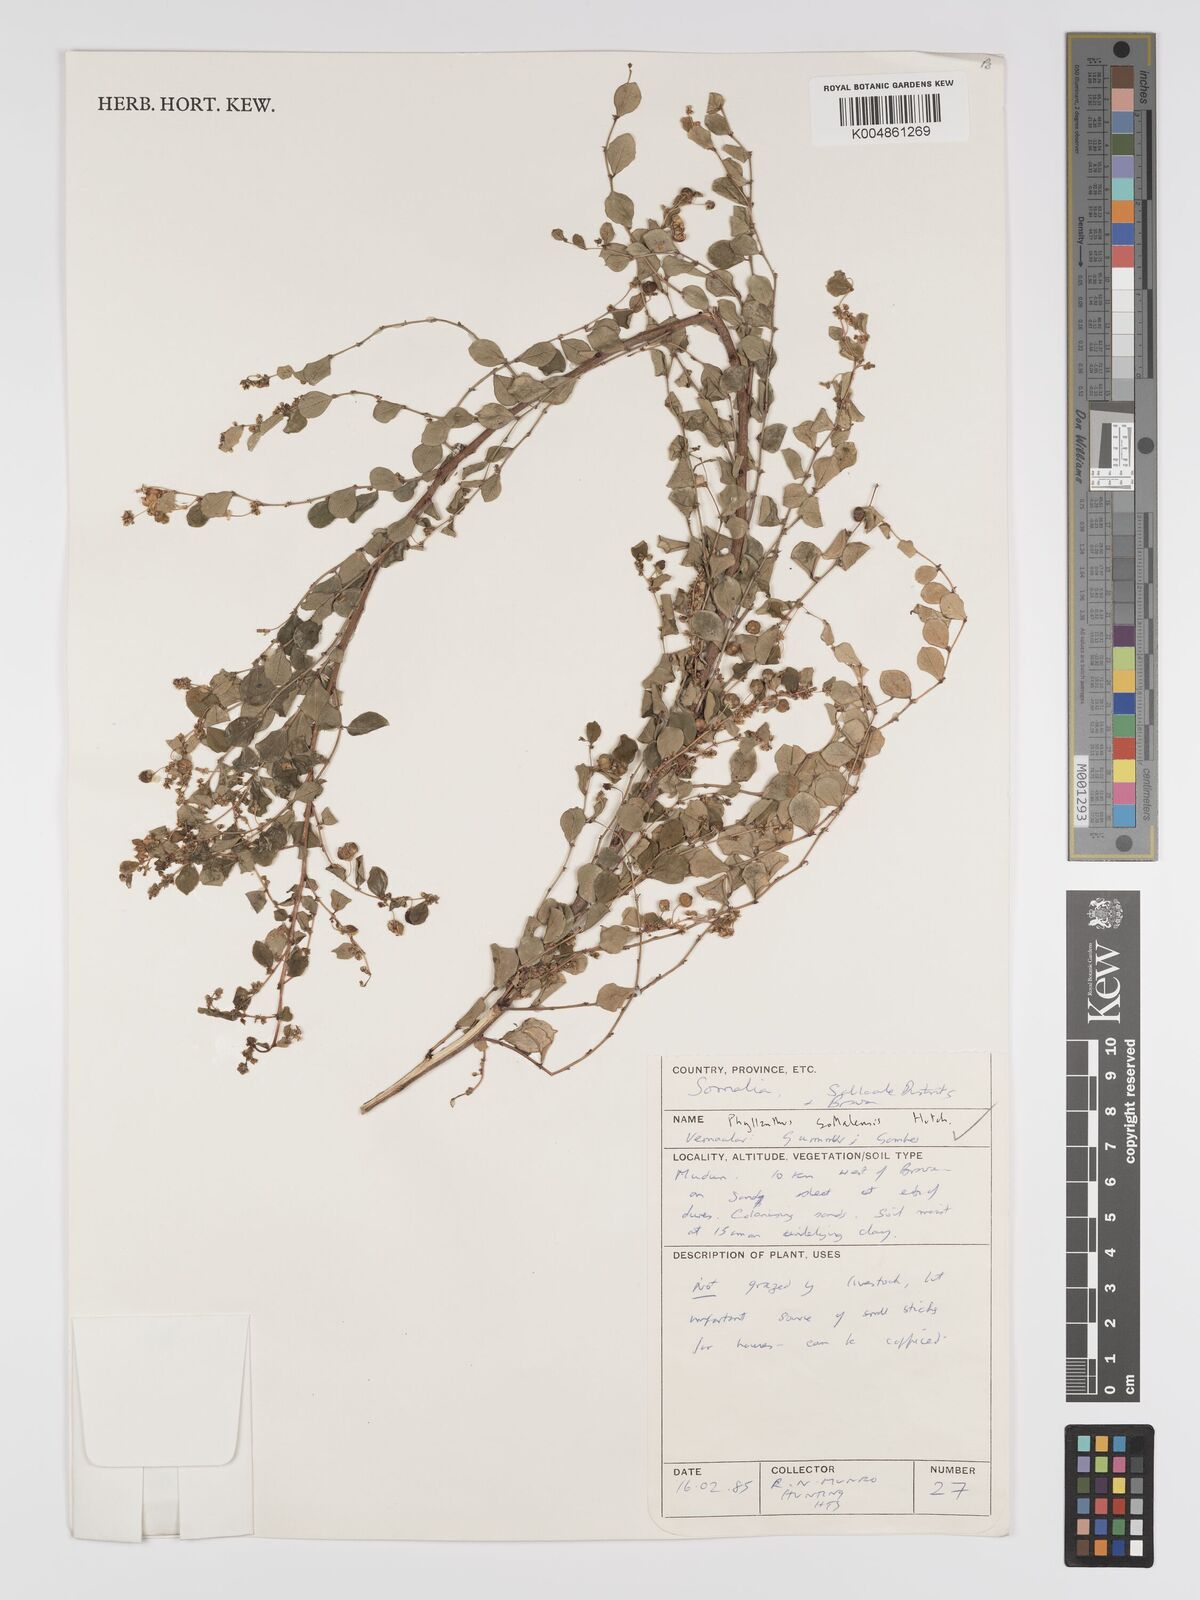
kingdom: Plantae
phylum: Tracheophyta
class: Magnoliopsida
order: Malpighiales
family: Phyllanthaceae
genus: Phyllanthus
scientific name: Phyllanthus somalensis
